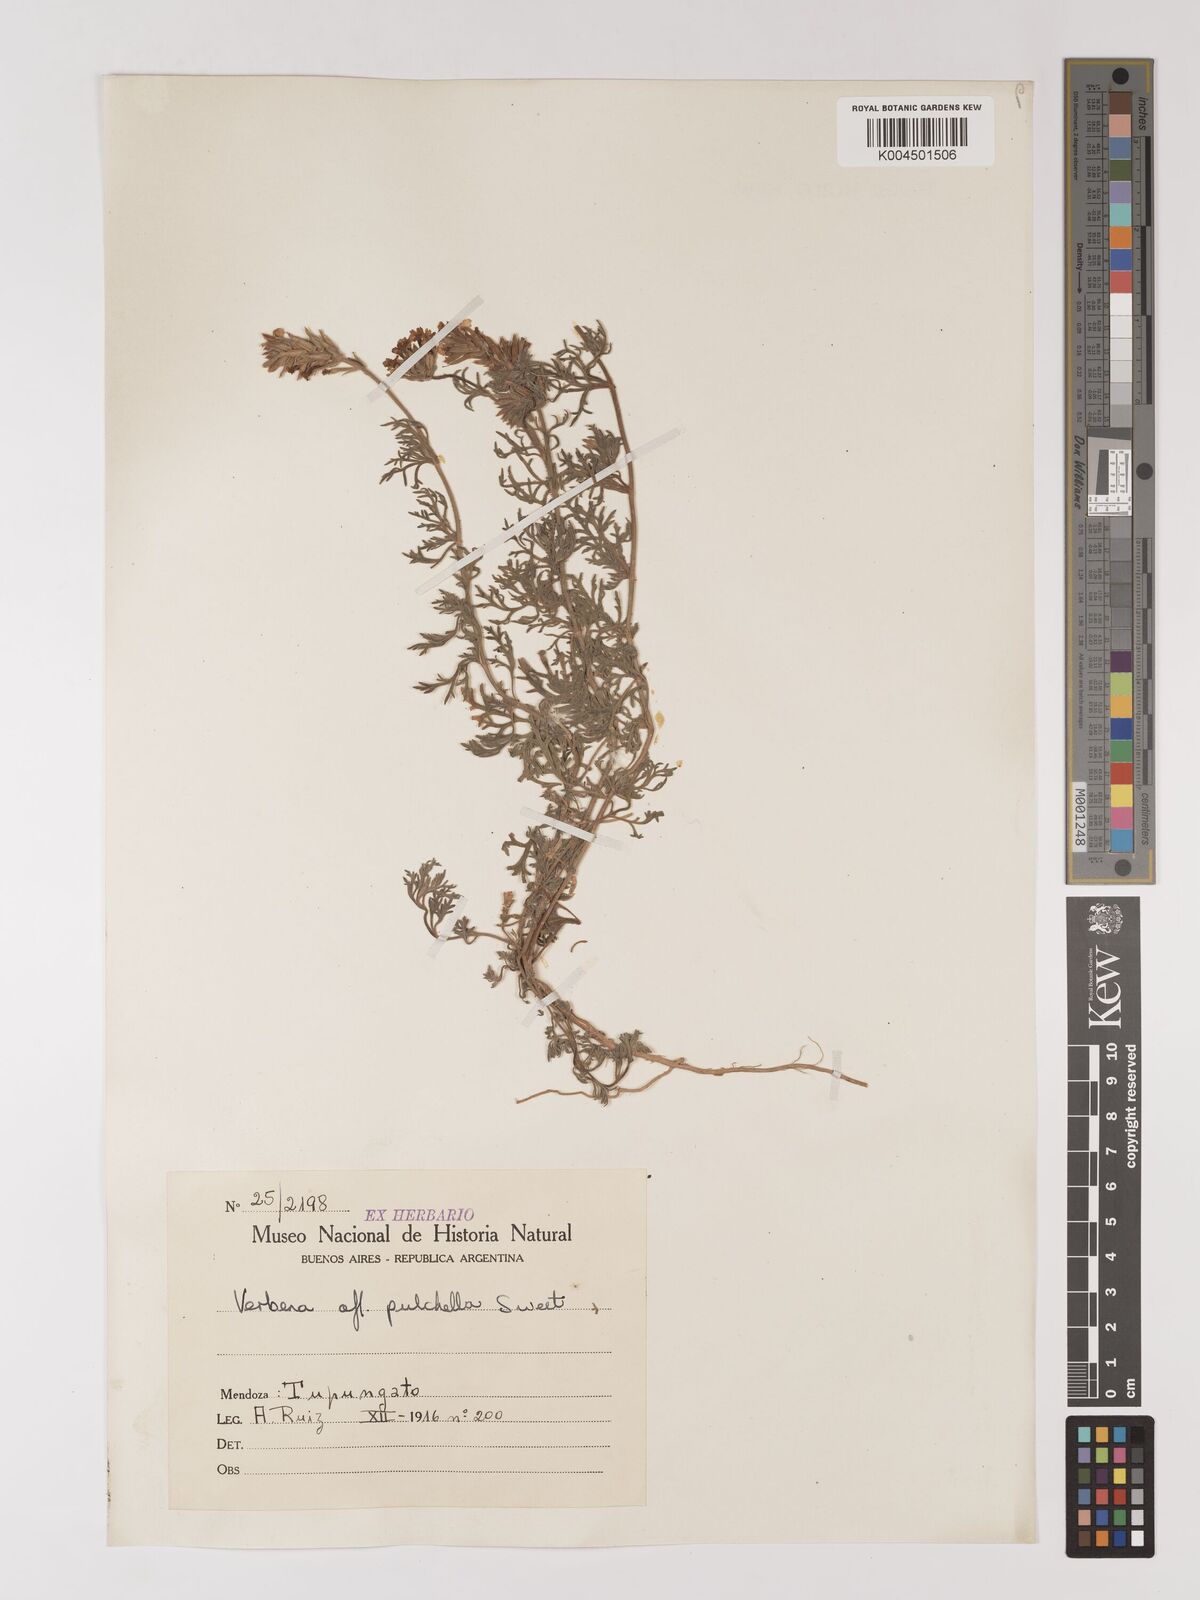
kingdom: Plantae
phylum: Tracheophyta
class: Magnoliopsida
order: Lamiales
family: Verbenaceae
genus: Verbena
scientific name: Verbena tenera
